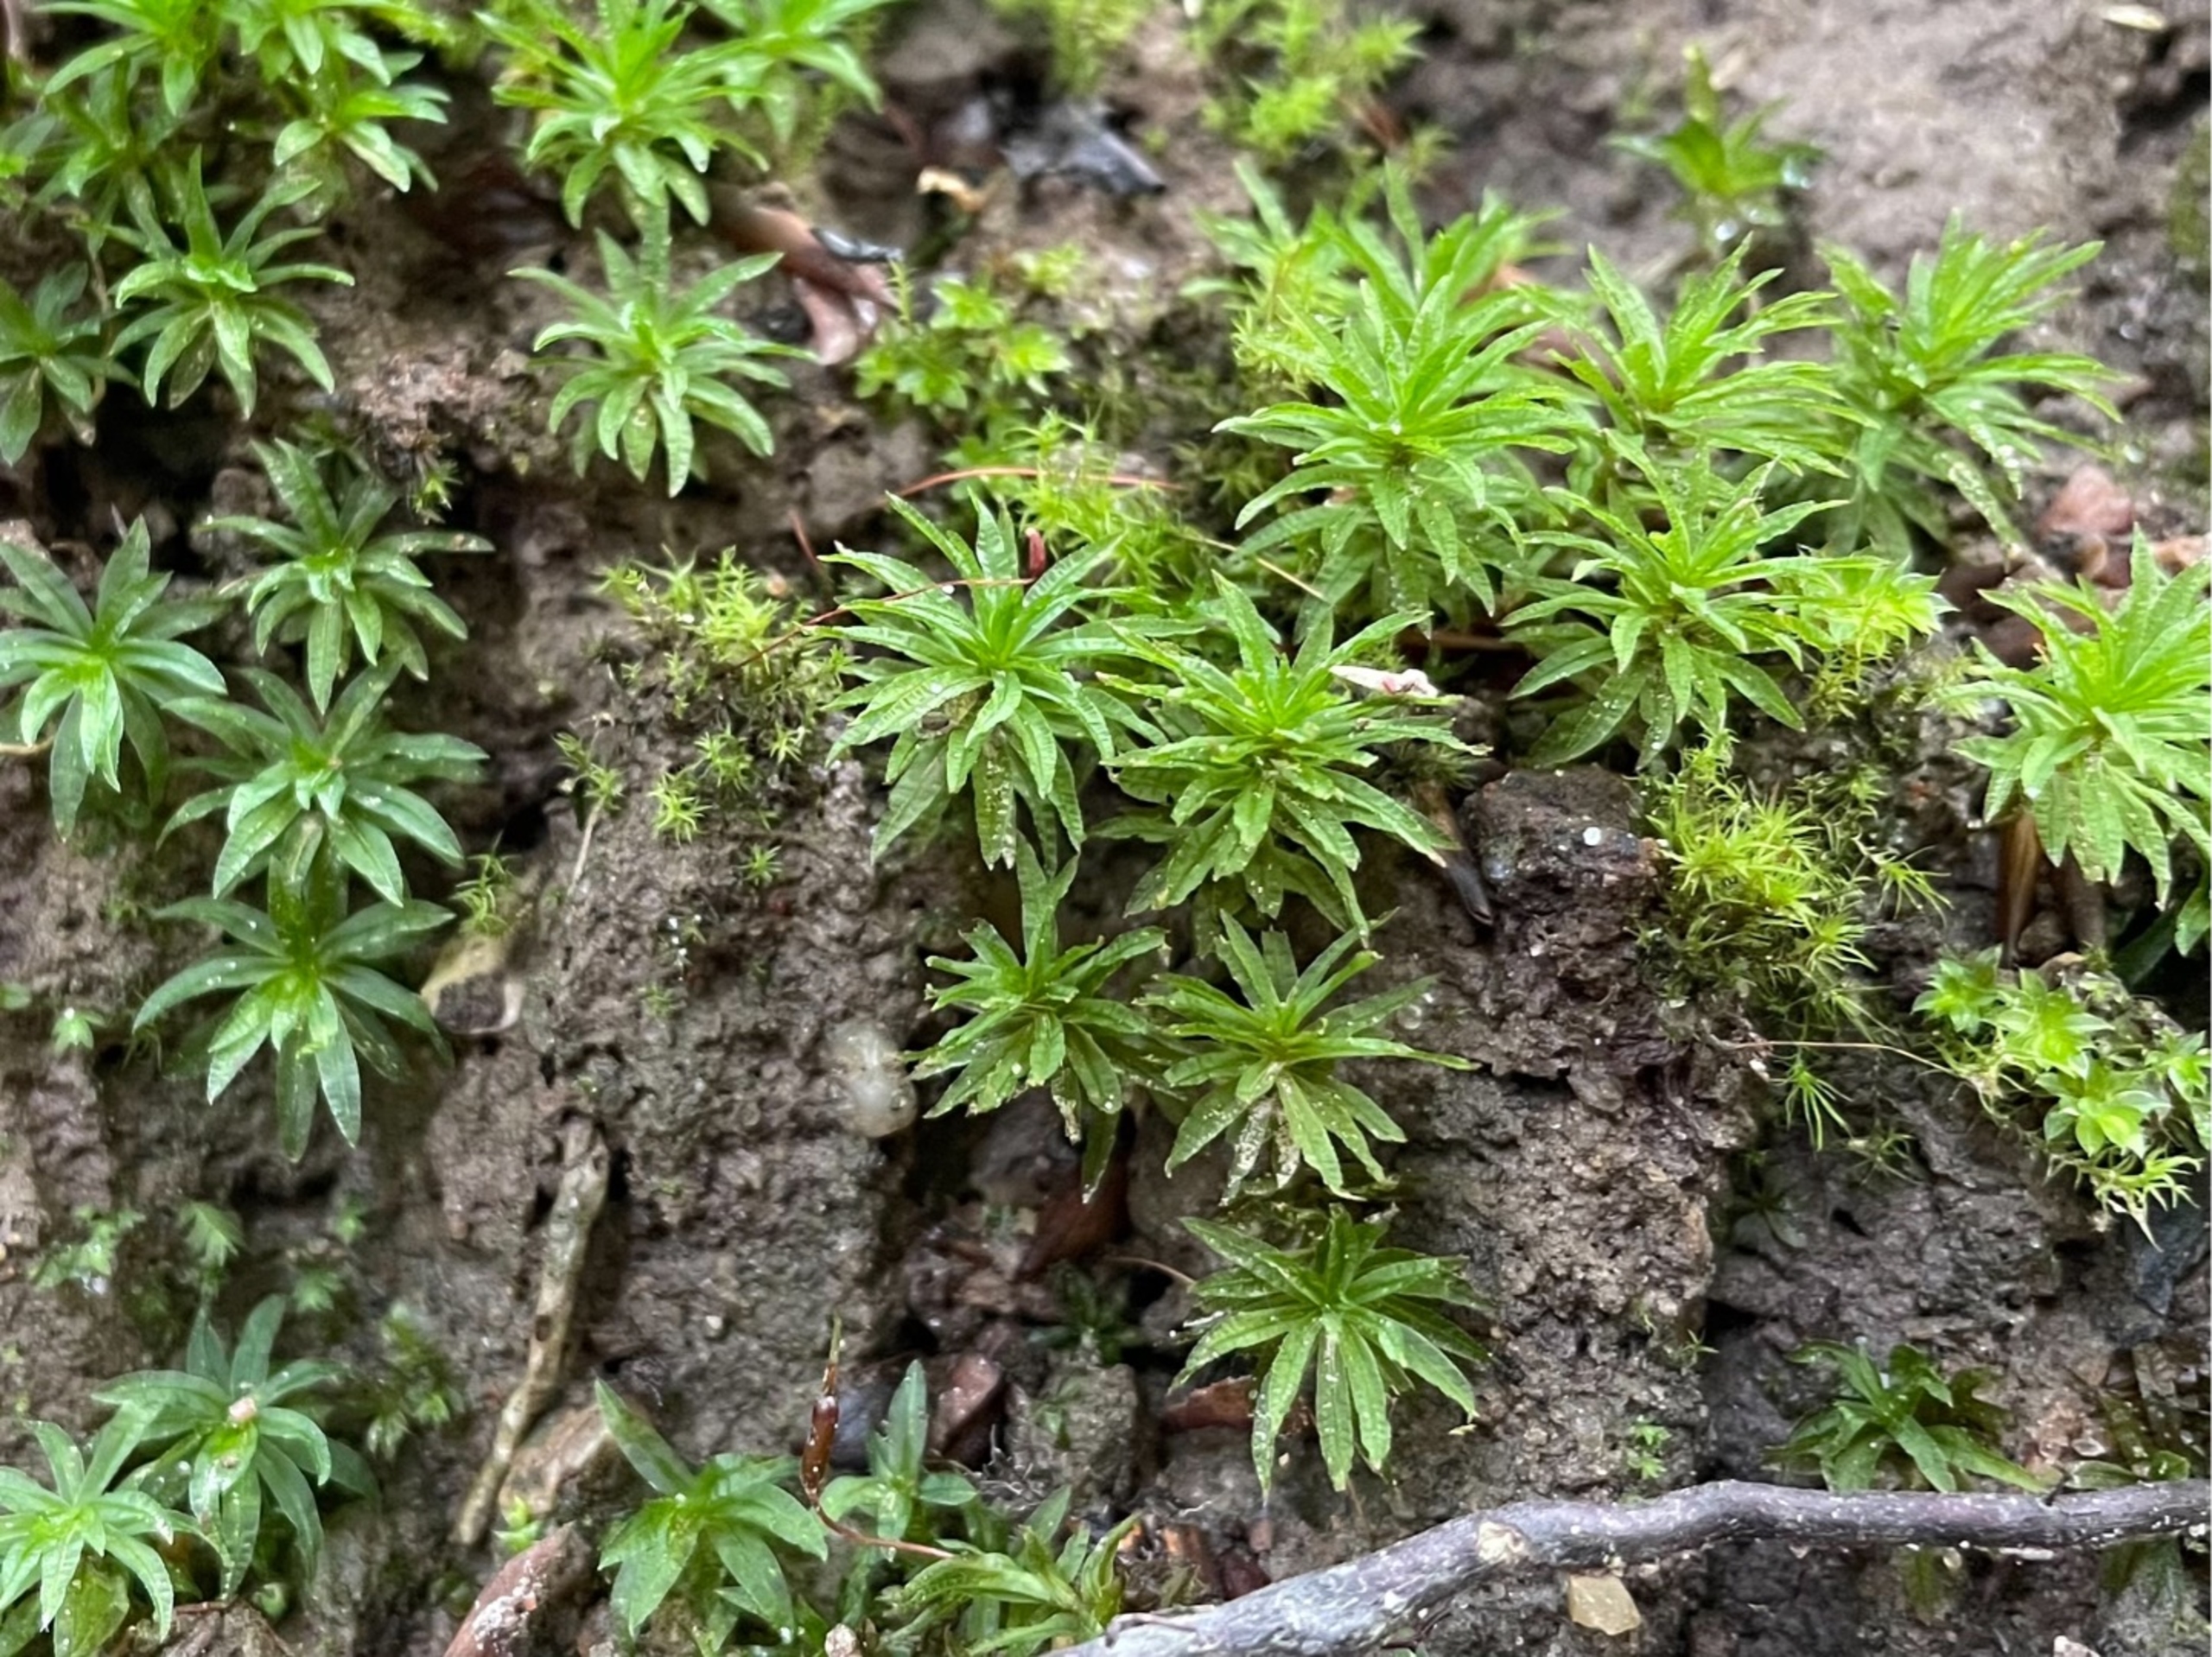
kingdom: Plantae
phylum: Bryophyta
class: Polytrichopsida
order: Polytrichales
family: Polytrichaceae
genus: Atrichum
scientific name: Atrichum undulatum
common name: Bølget katrinemos
